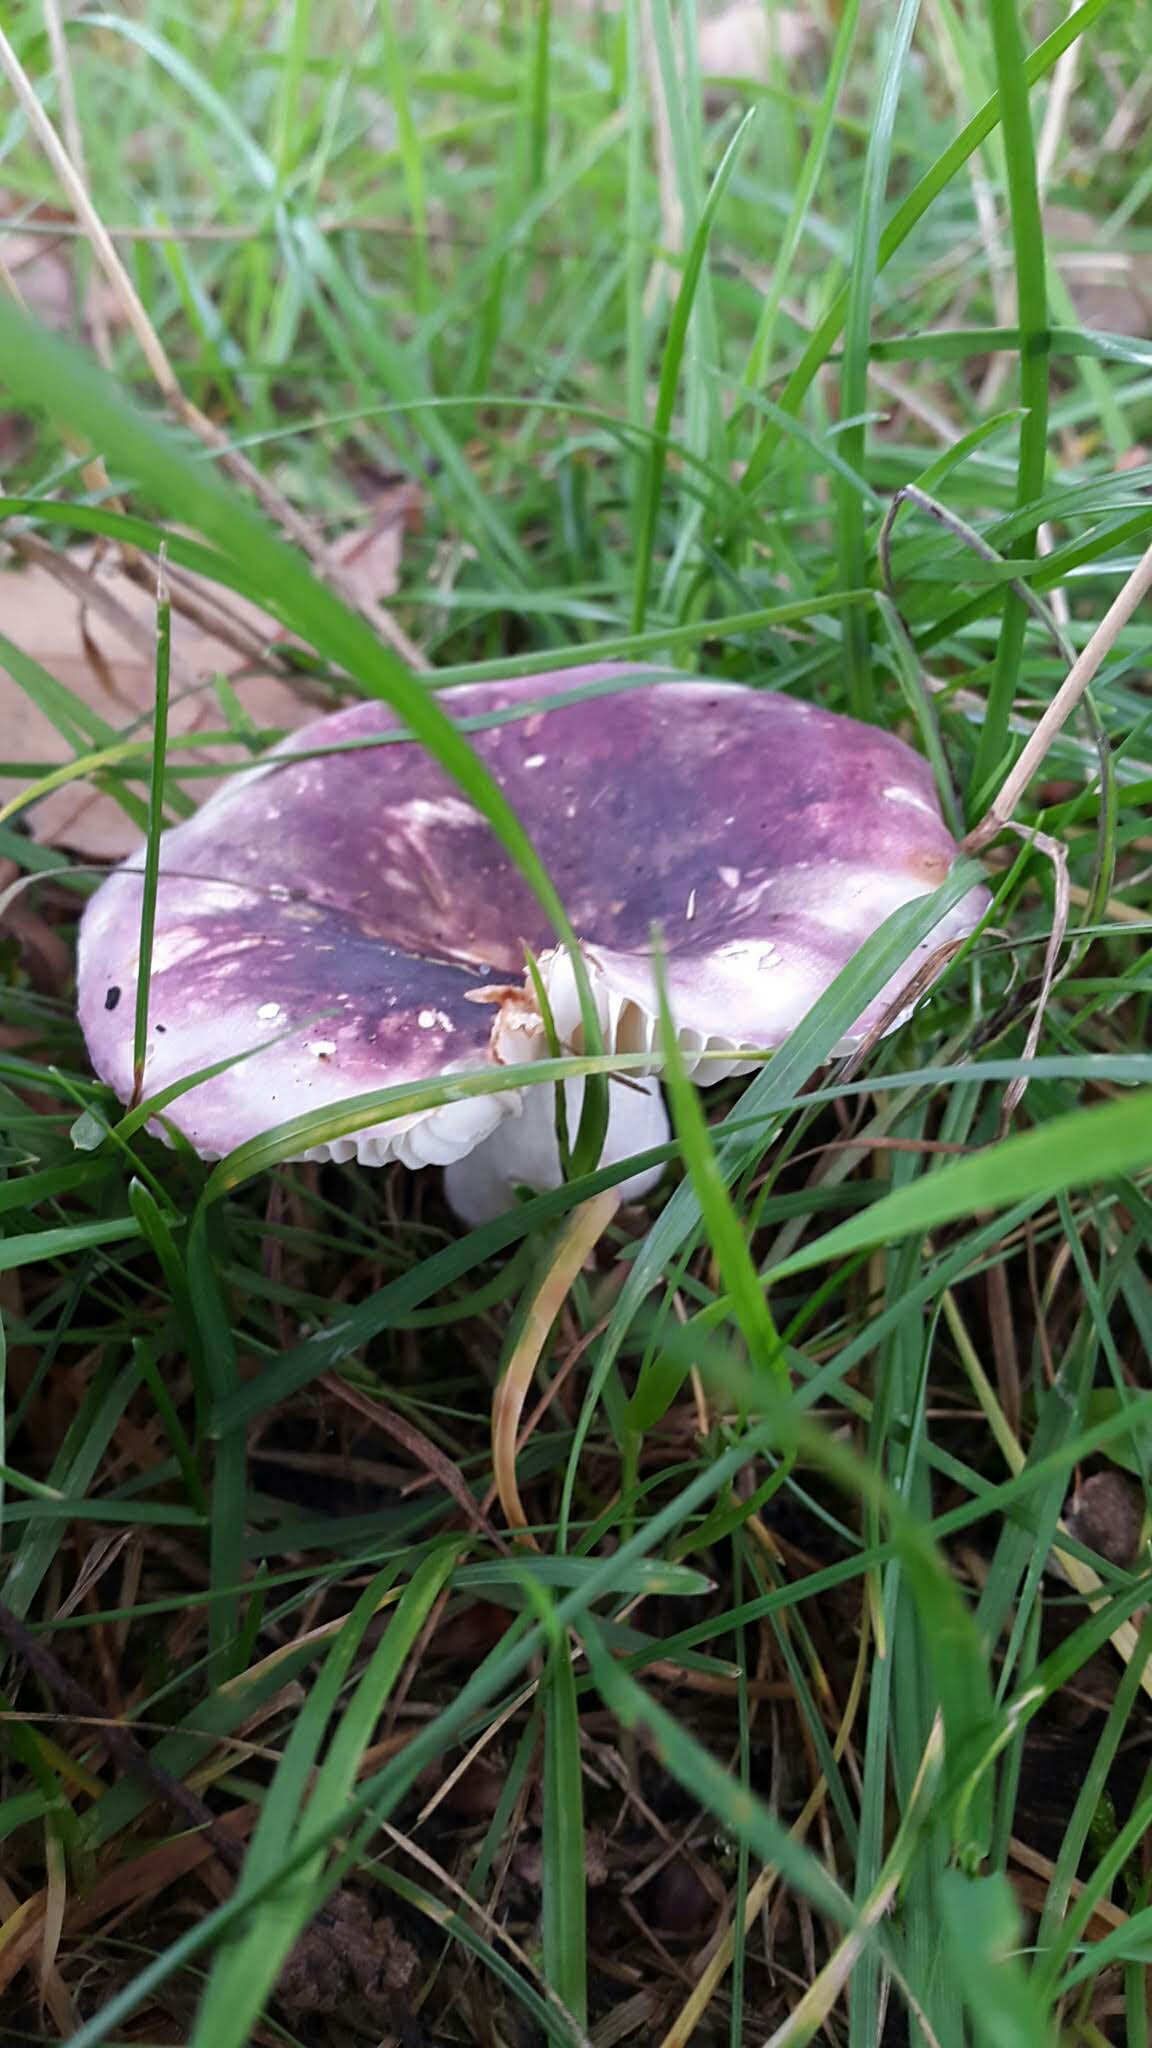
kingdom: Fungi
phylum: Basidiomycota
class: Agaricomycetes
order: Russulales
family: Russulaceae
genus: Russula
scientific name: Russula
